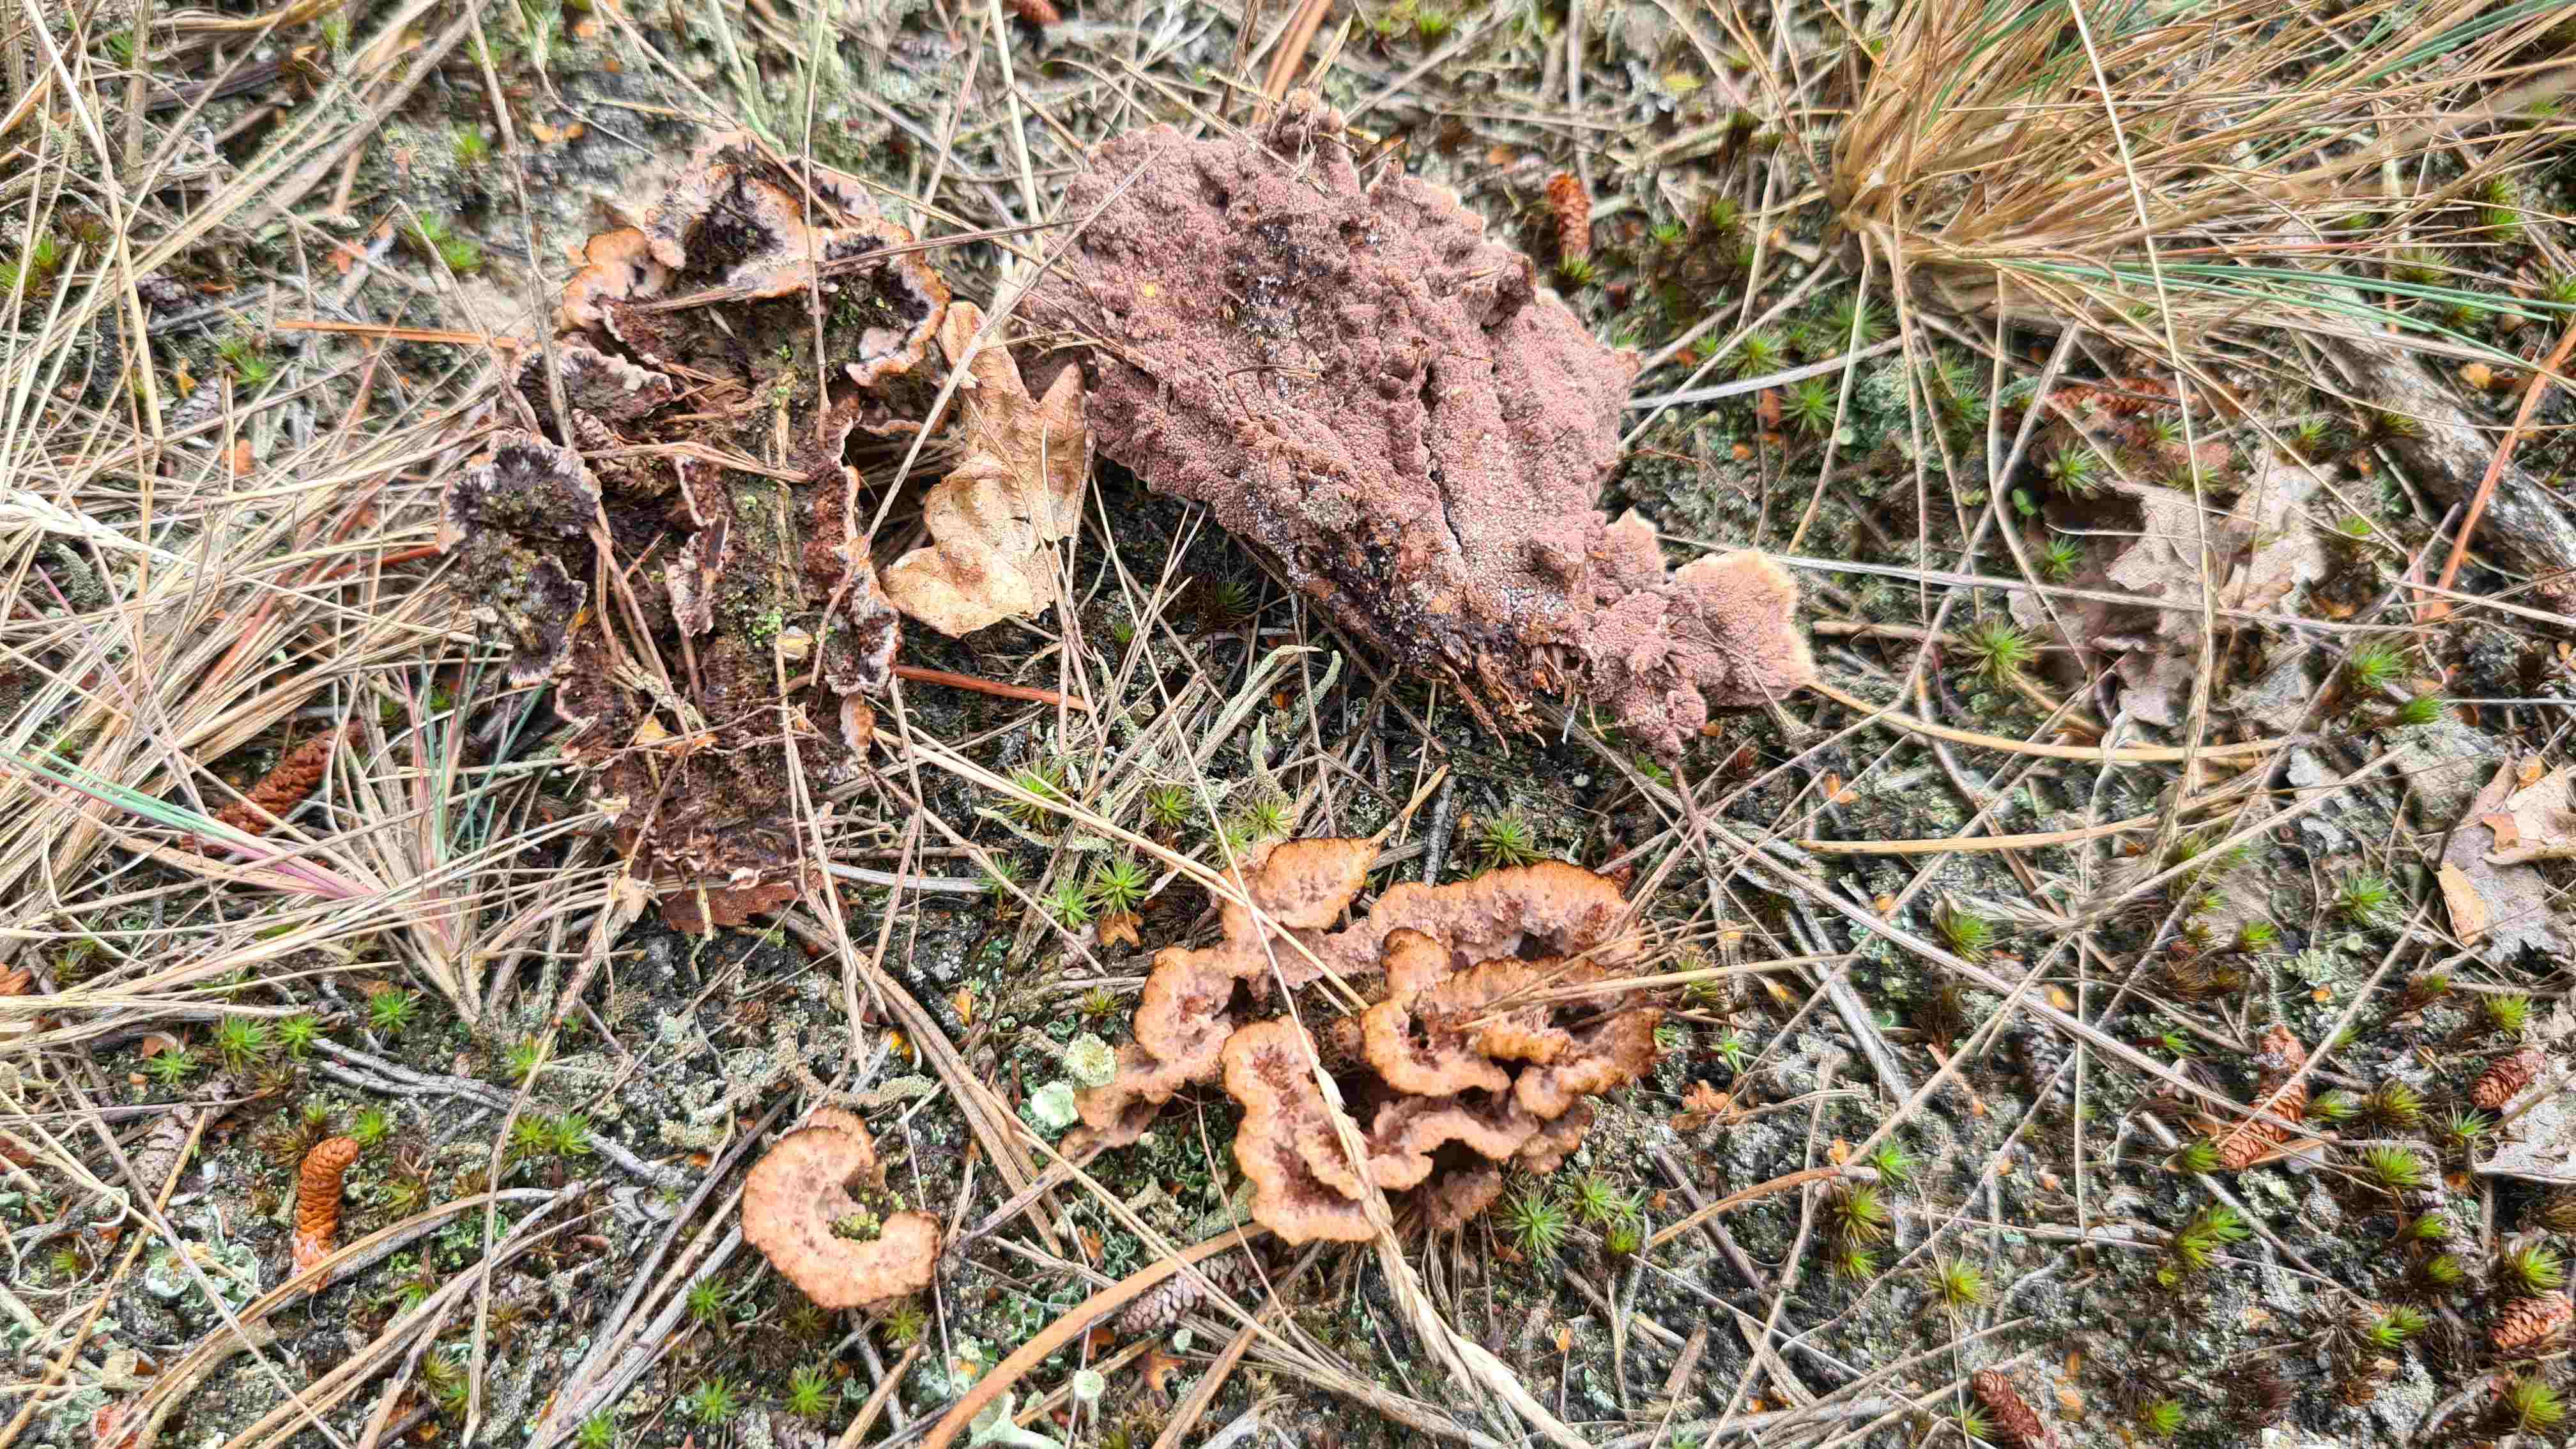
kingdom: Fungi
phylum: Basidiomycota
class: Agaricomycetes
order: Thelephorales
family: Thelephoraceae
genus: Thelephora
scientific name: Thelephora terrestris
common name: fliget frynsesvamp
